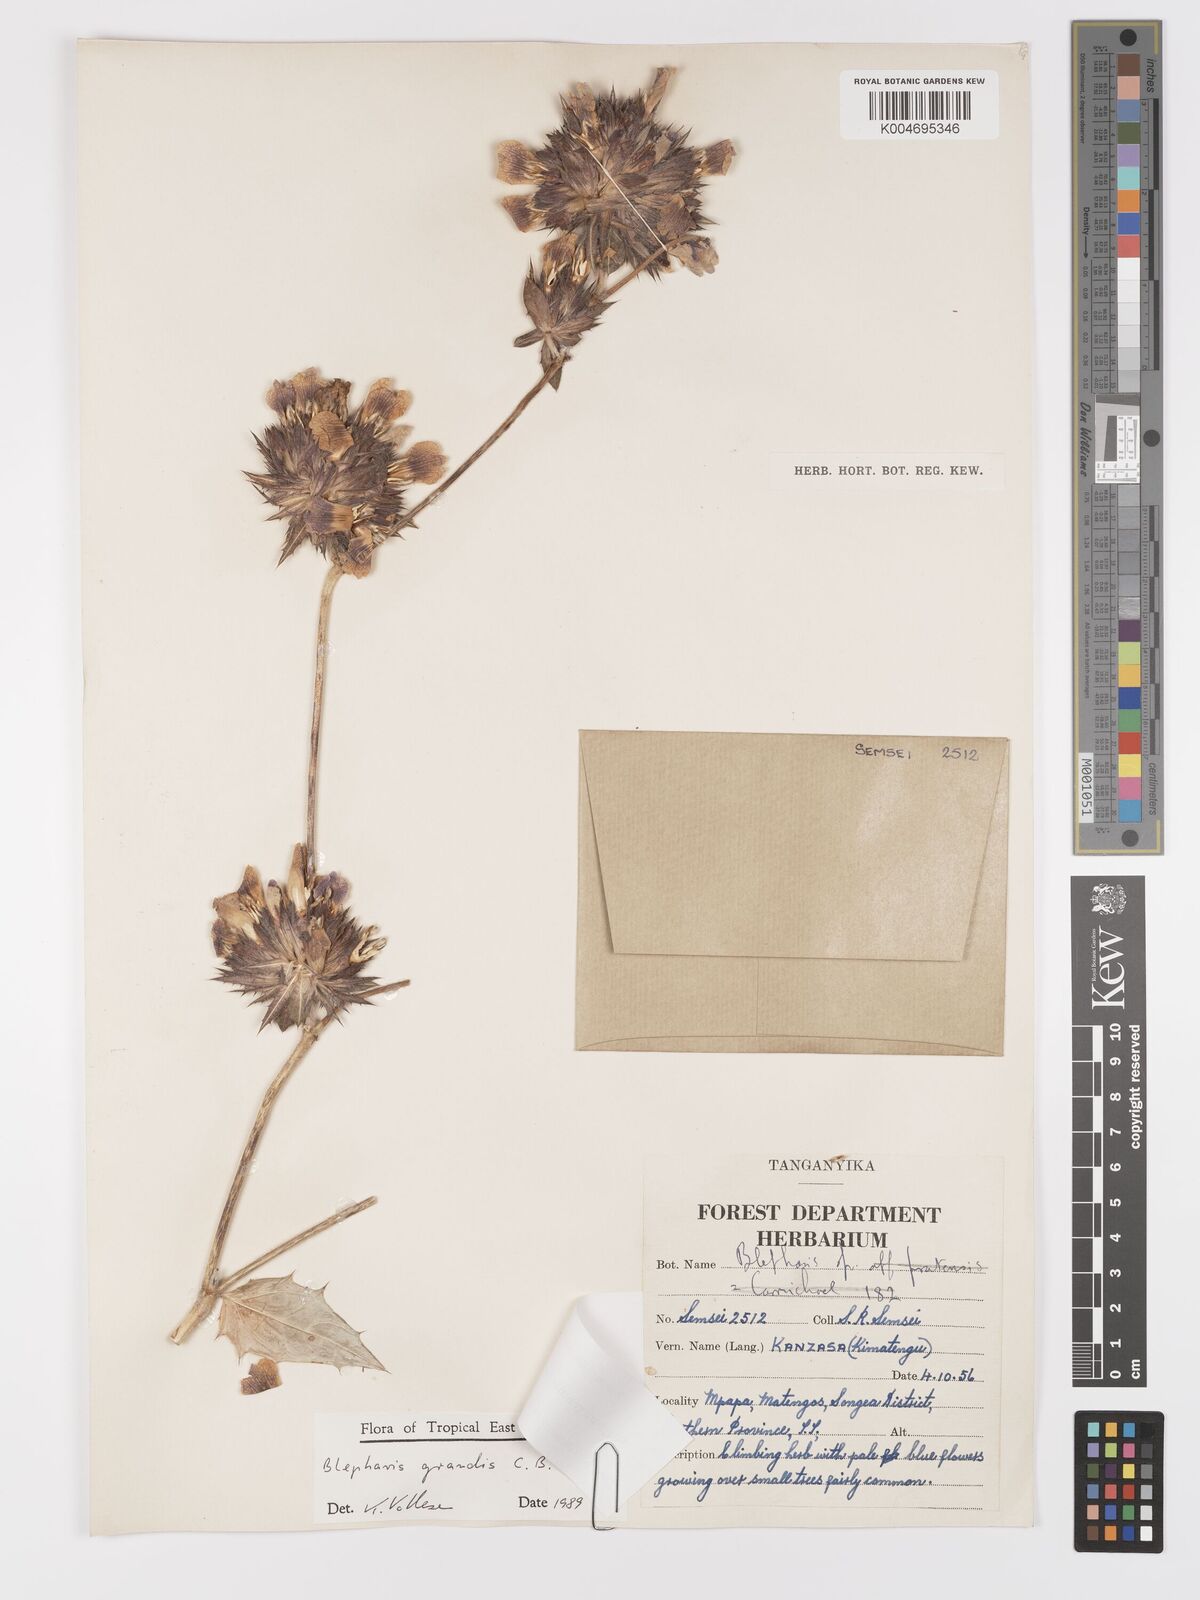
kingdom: Plantae
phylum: Tracheophyta
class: Magnoliopsida
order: Lamiales
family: Acanthaceae
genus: Blepharis
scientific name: Blepharis grandis
